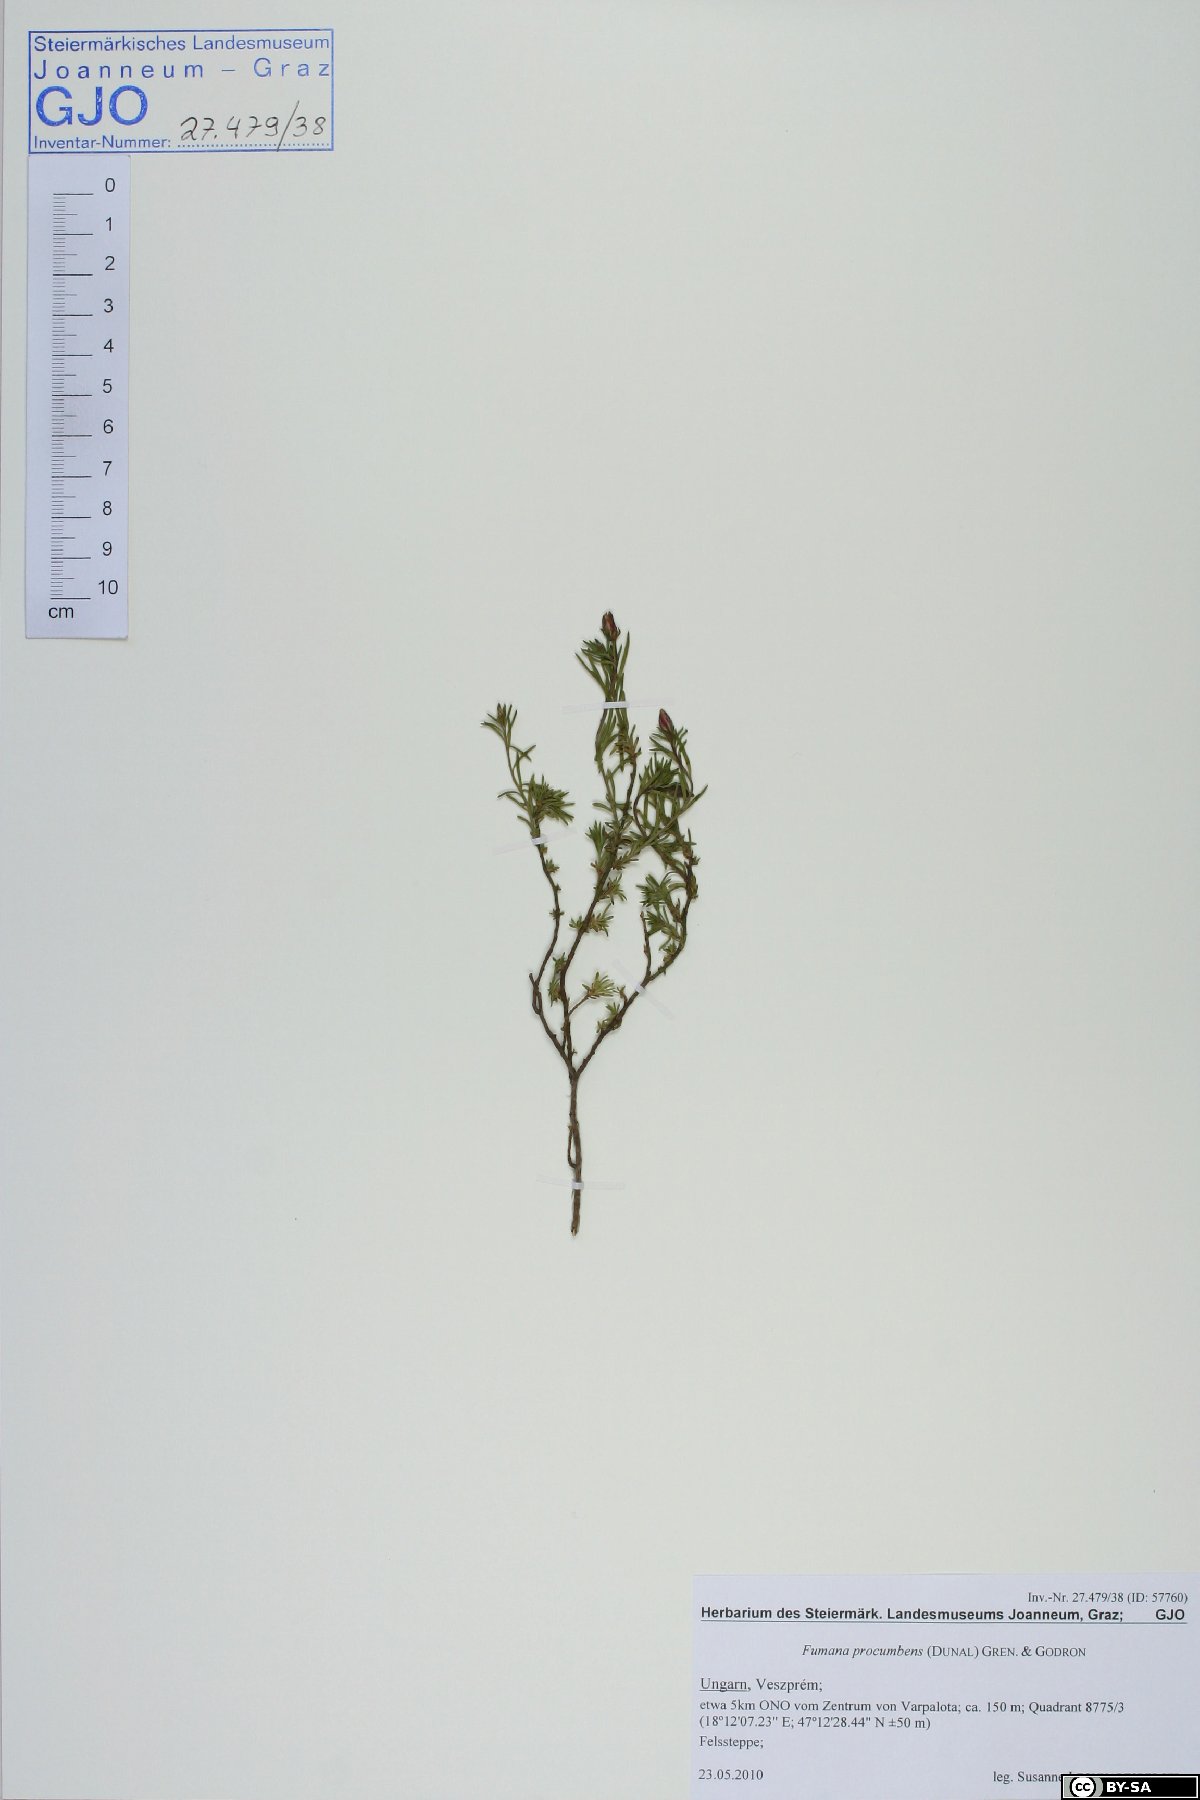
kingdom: Plantae
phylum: Tracheophyta
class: Magnoliopsida
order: Malvales
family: Cistaceae
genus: Fumana
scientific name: Fumana procumbens
